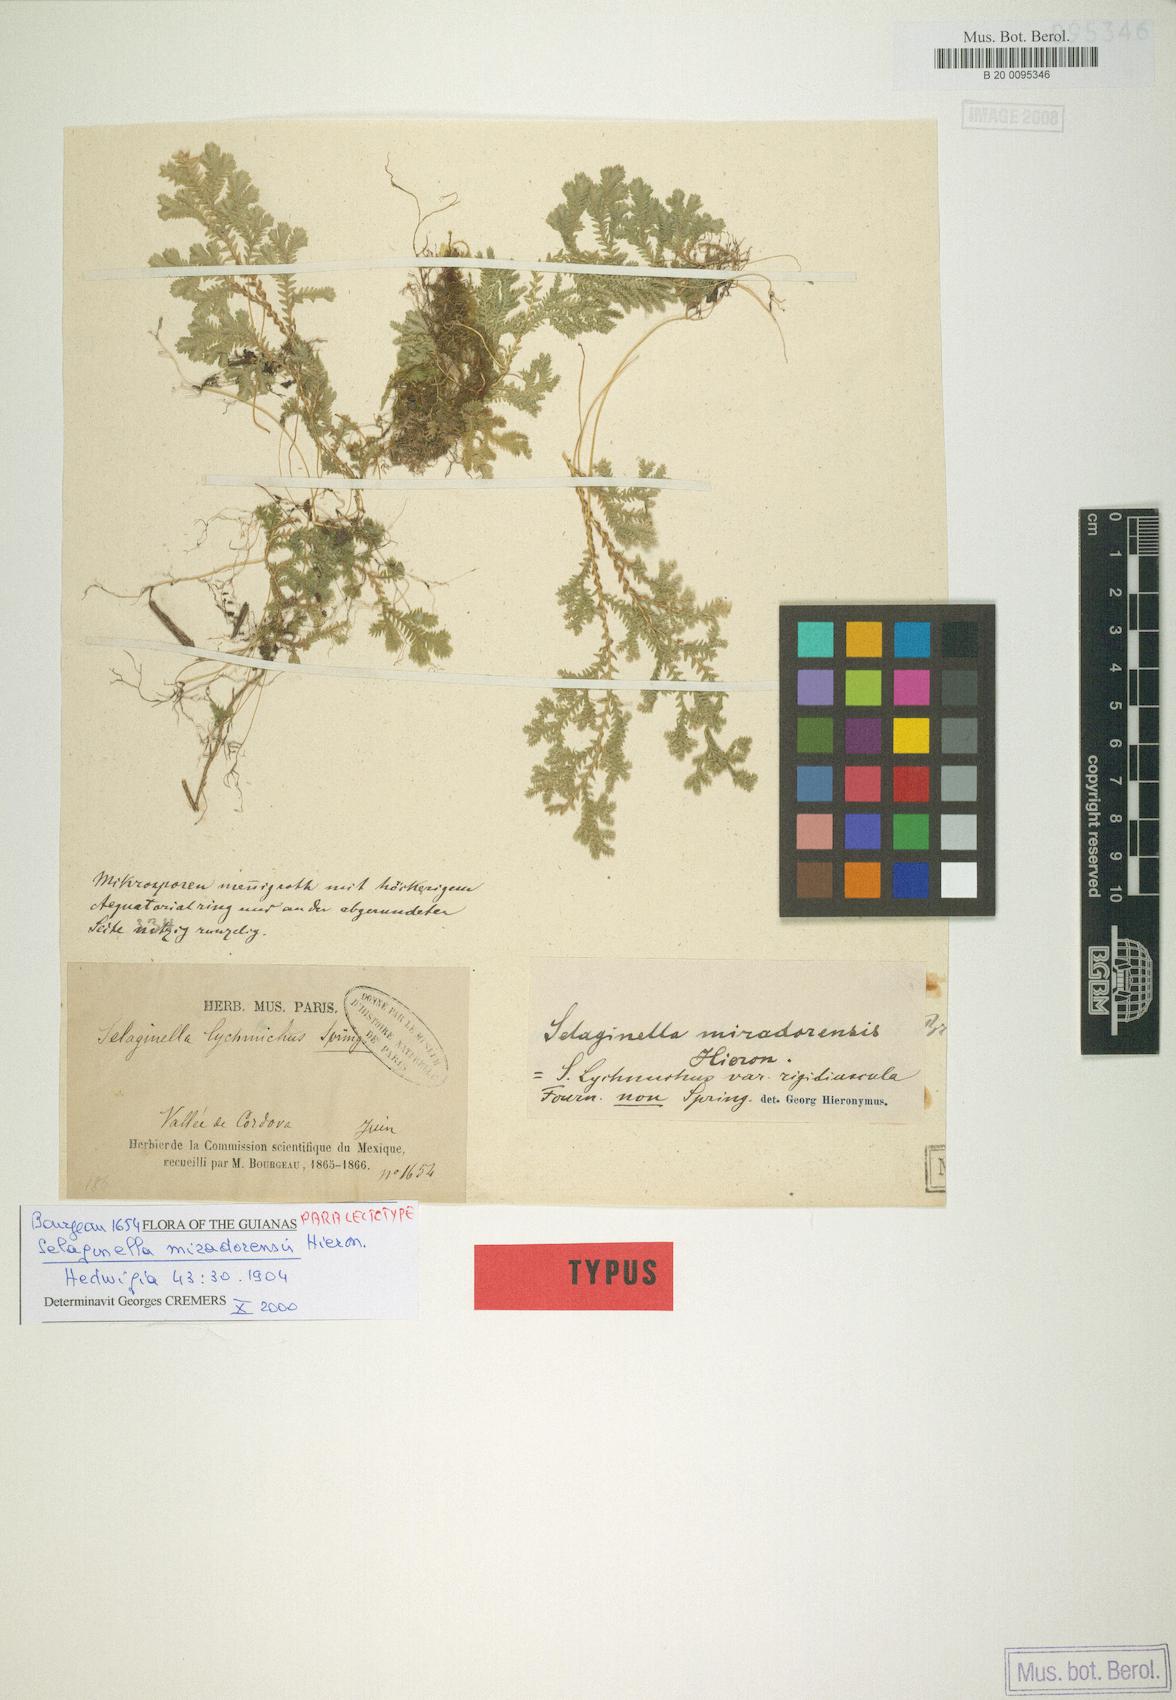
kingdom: Plantae
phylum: Tracheophyta
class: Lycopodiopsida
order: Selaginellales
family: Selaginellaceae
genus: Selaginella
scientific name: Selaginella stenophylla
